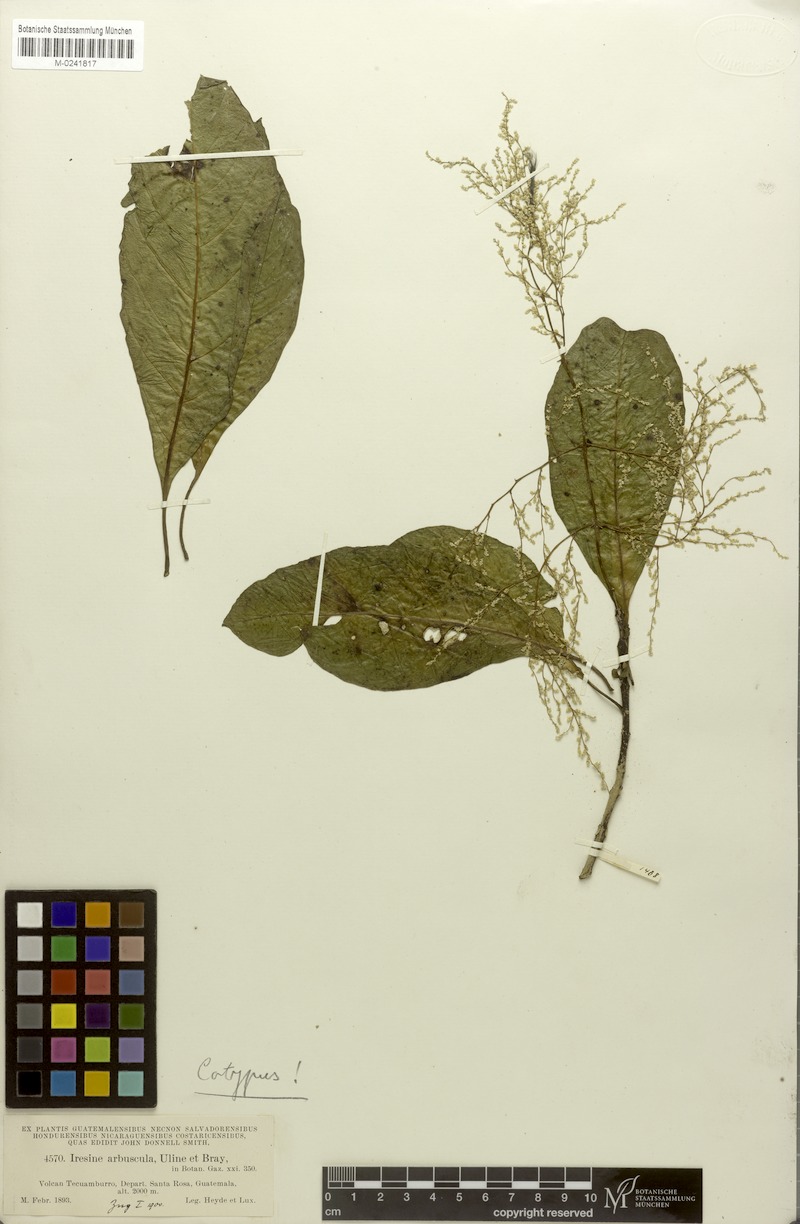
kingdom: Plantae
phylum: Tracheophyta
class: Magnoliopsida
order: Caryophyllales
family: Amaranthaceae
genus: Iresine
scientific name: Iresine arbuscula
